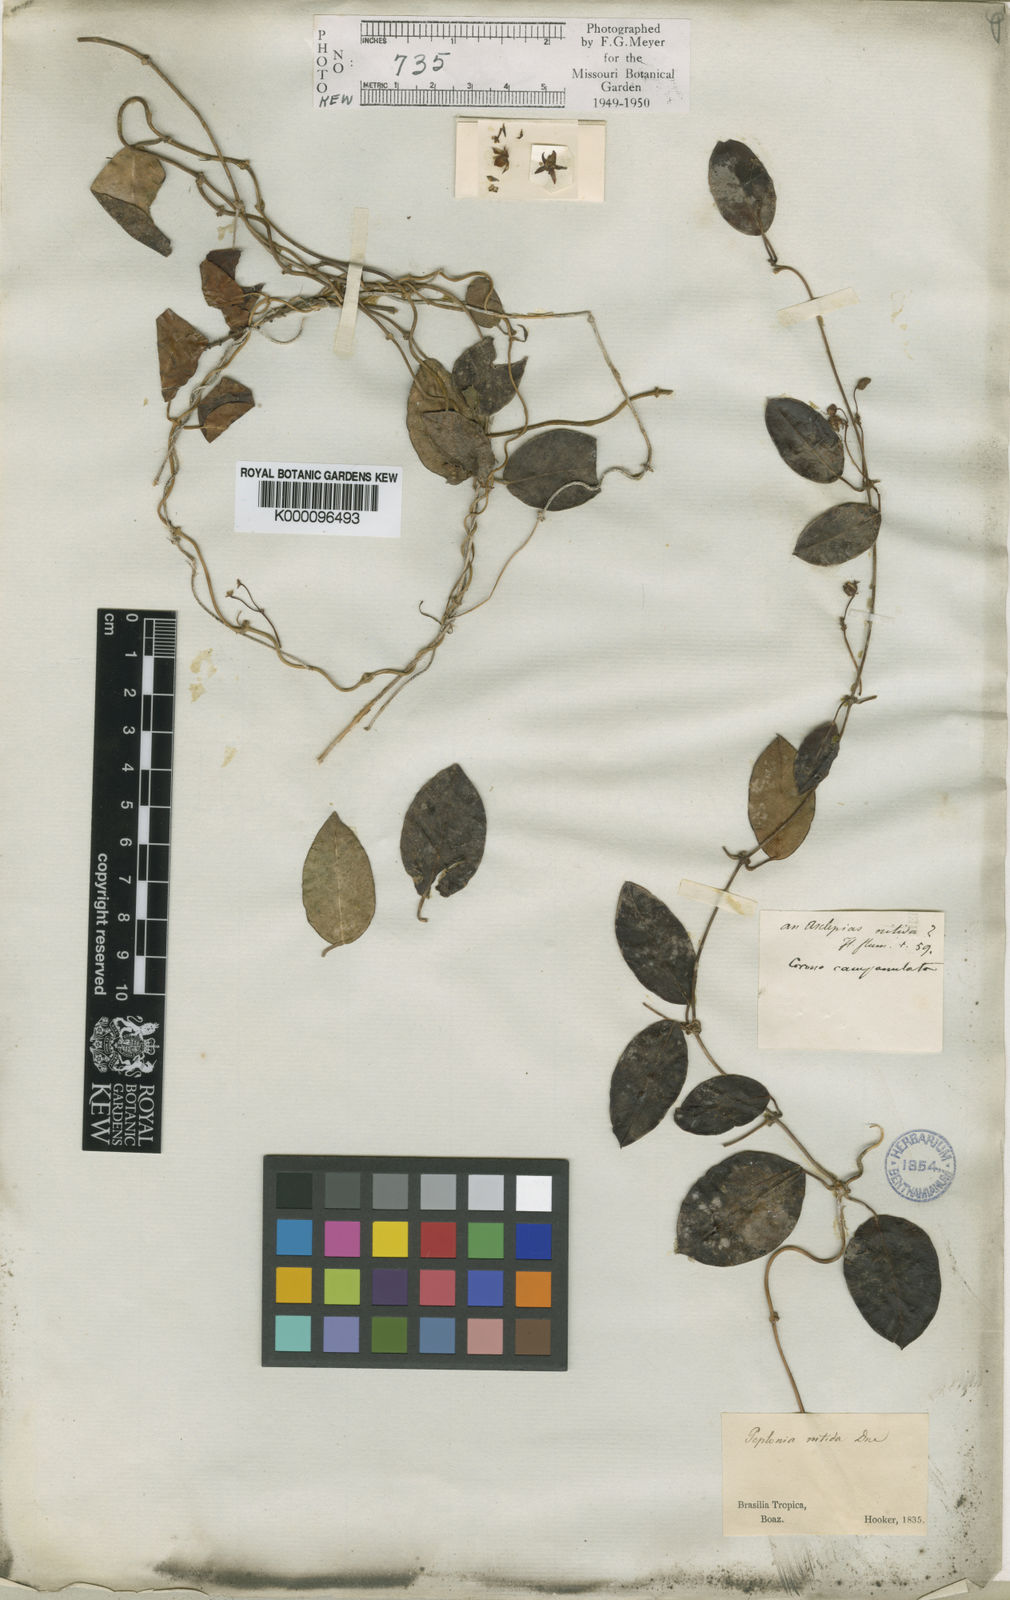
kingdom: Plantae
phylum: Tracheophyta
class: Magnoliopsida
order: Gentianales
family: Apocynaceae
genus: Peplonia
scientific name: Peplonia asteria
